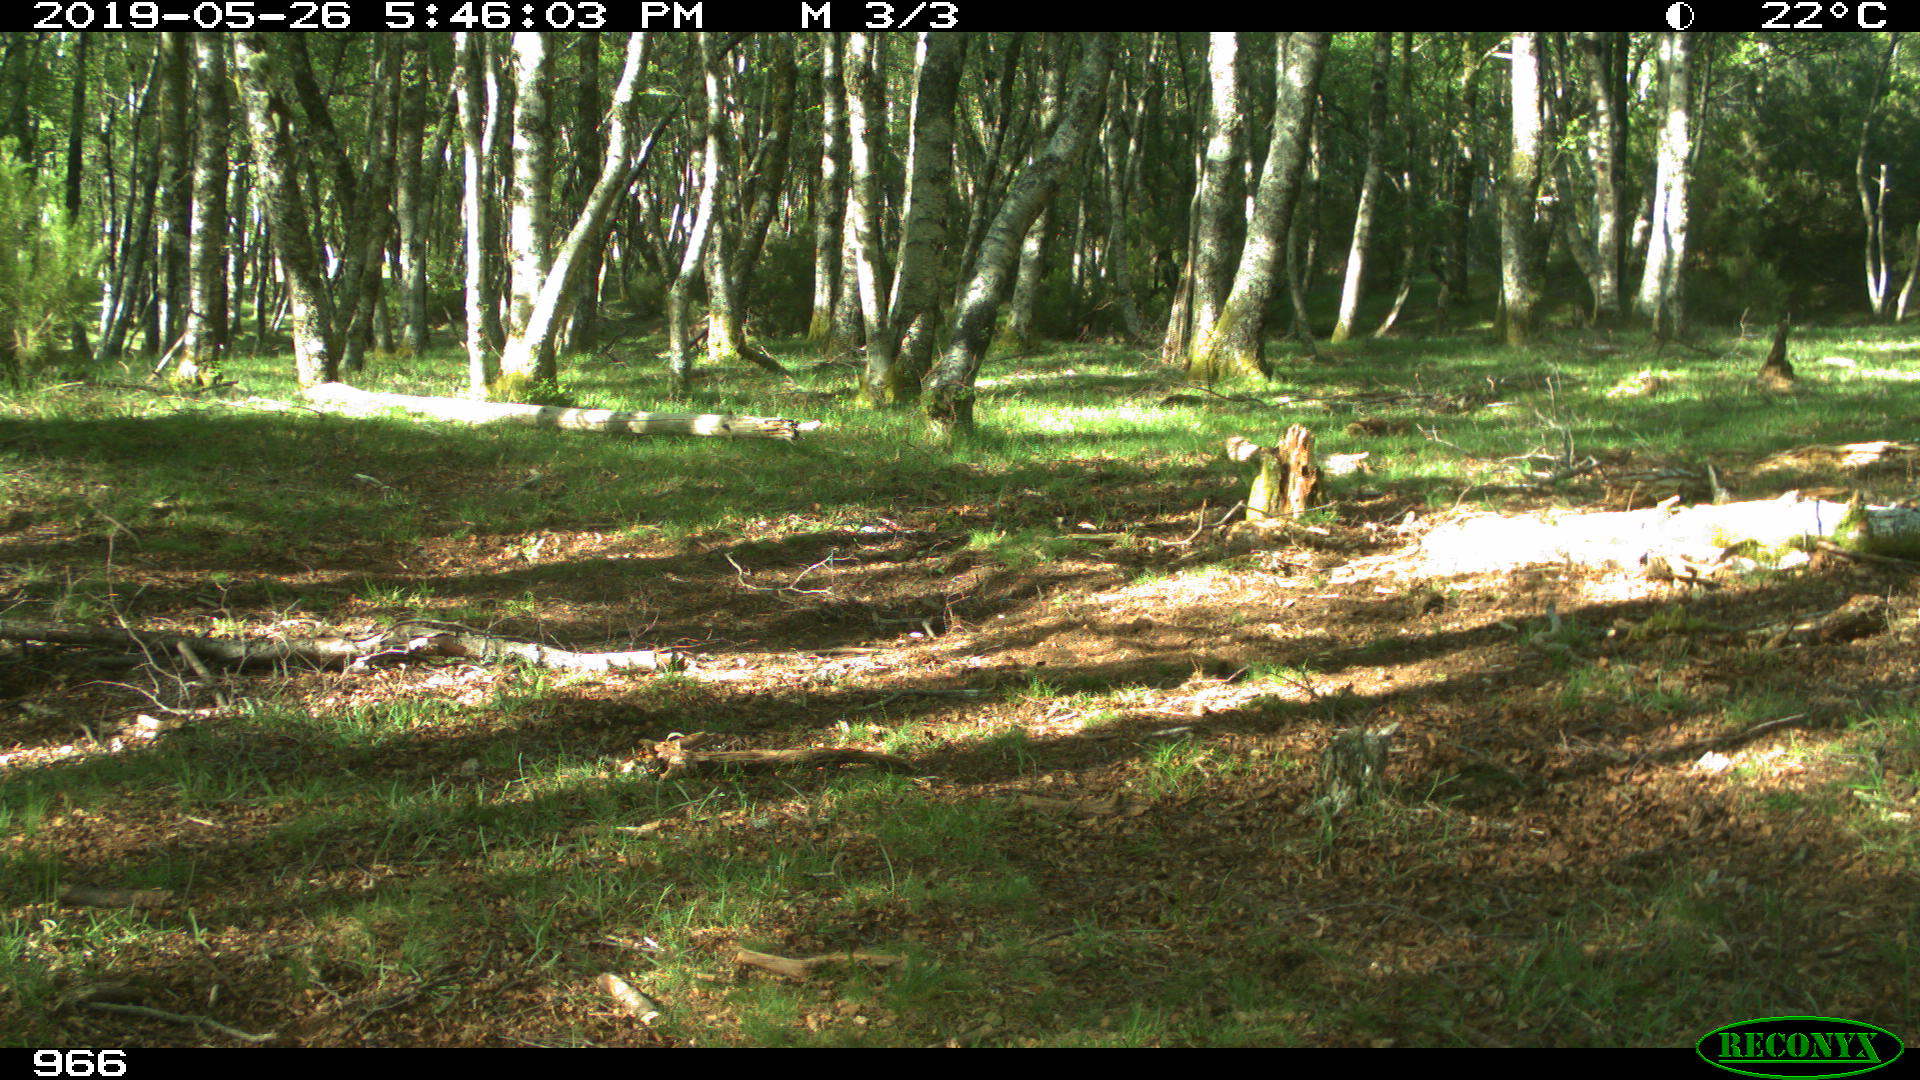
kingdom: Animalia
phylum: Chordata
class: Mammalia
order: Perissodactyla
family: Equidae
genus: Equus
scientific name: Equus caballus
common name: Horse
